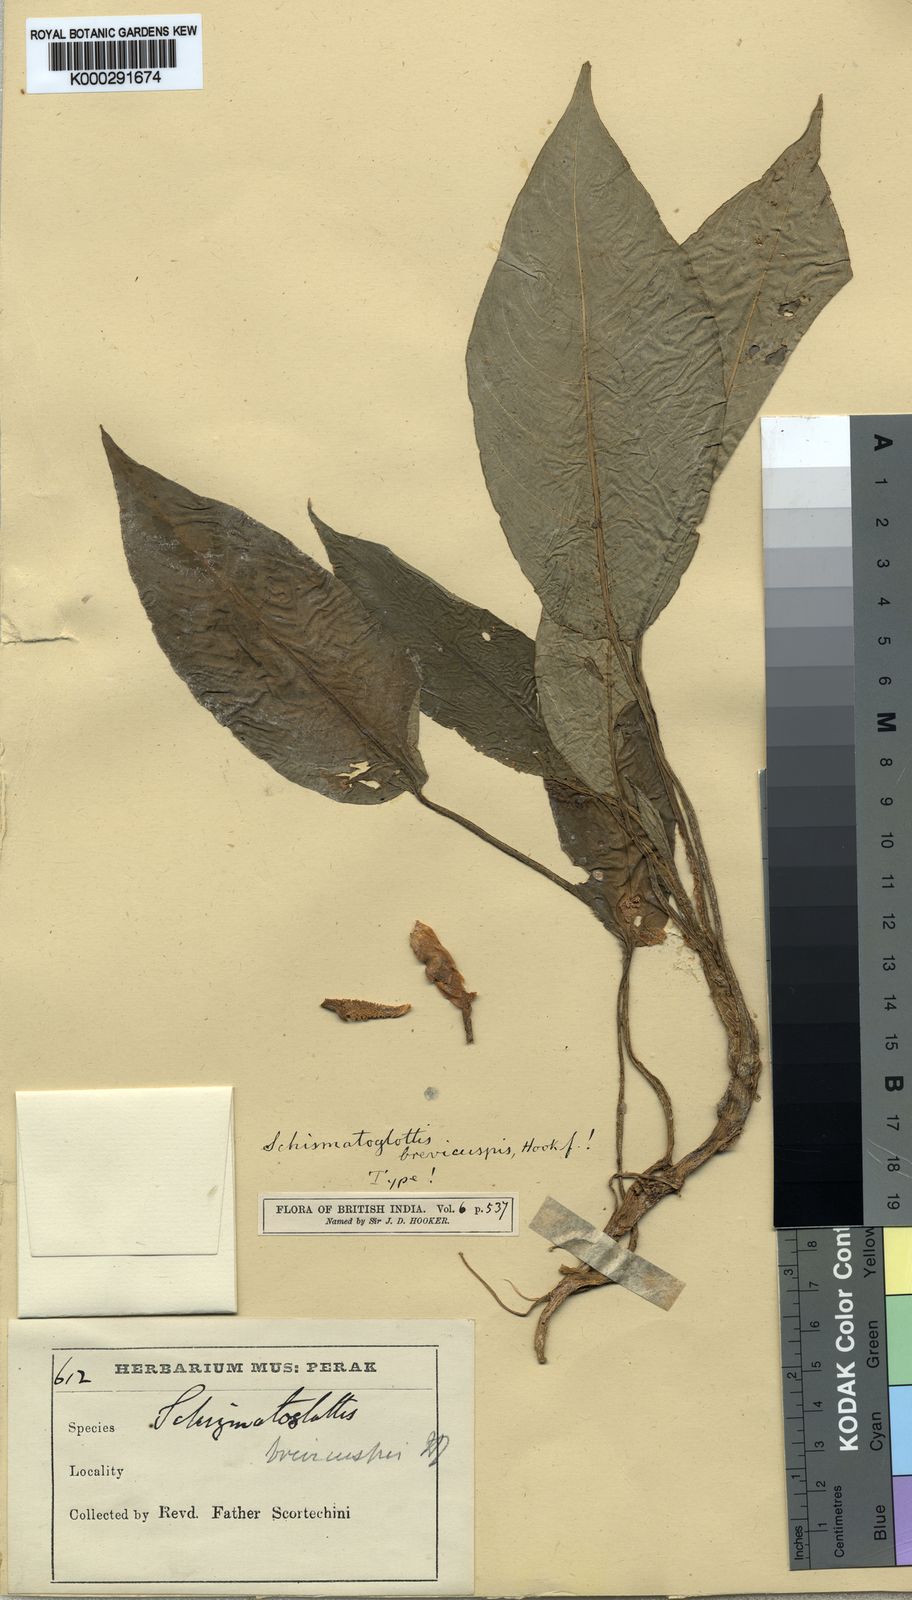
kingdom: Plantae
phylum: Tracheophyta
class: Liliopsida
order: Alismatales
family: Araceae
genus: Schismatoglottis
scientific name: Schismatoglottis brevicuspis
